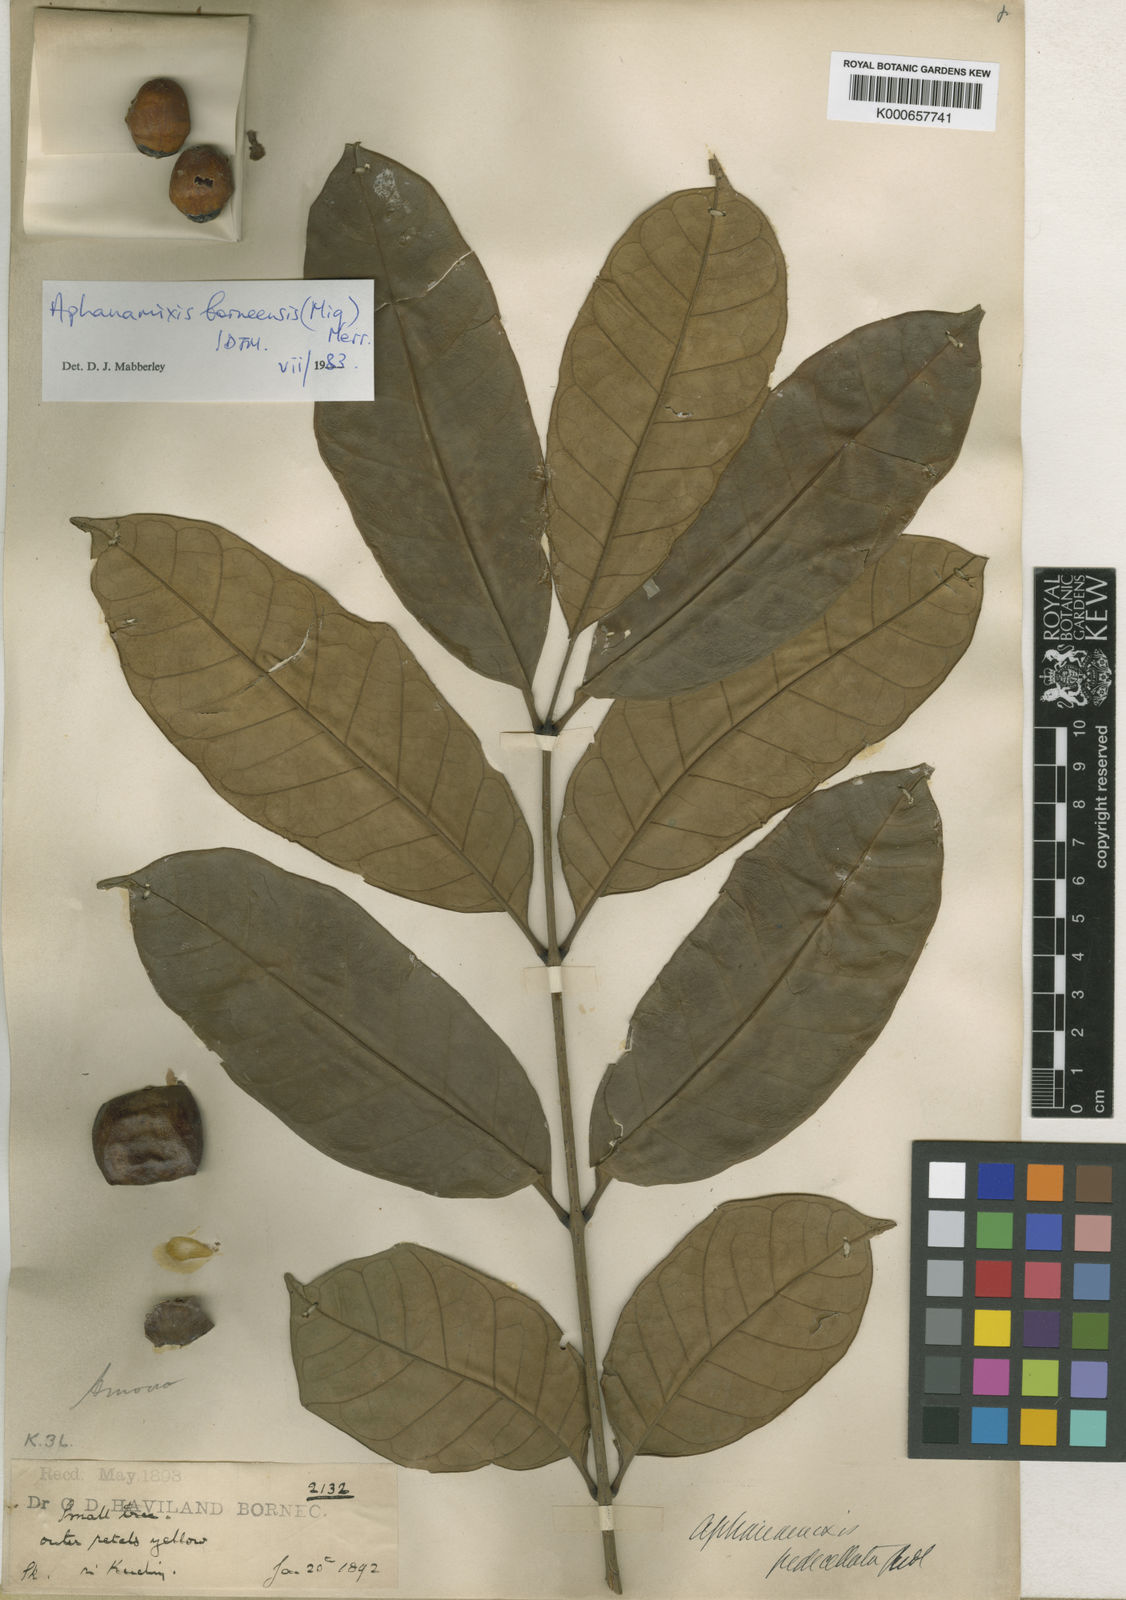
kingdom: Plantae
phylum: Tracheophyta
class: Magnoliopsida
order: Sapindales
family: Meliaceae
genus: Aphanamixis
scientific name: Aphanamixis borneensis
